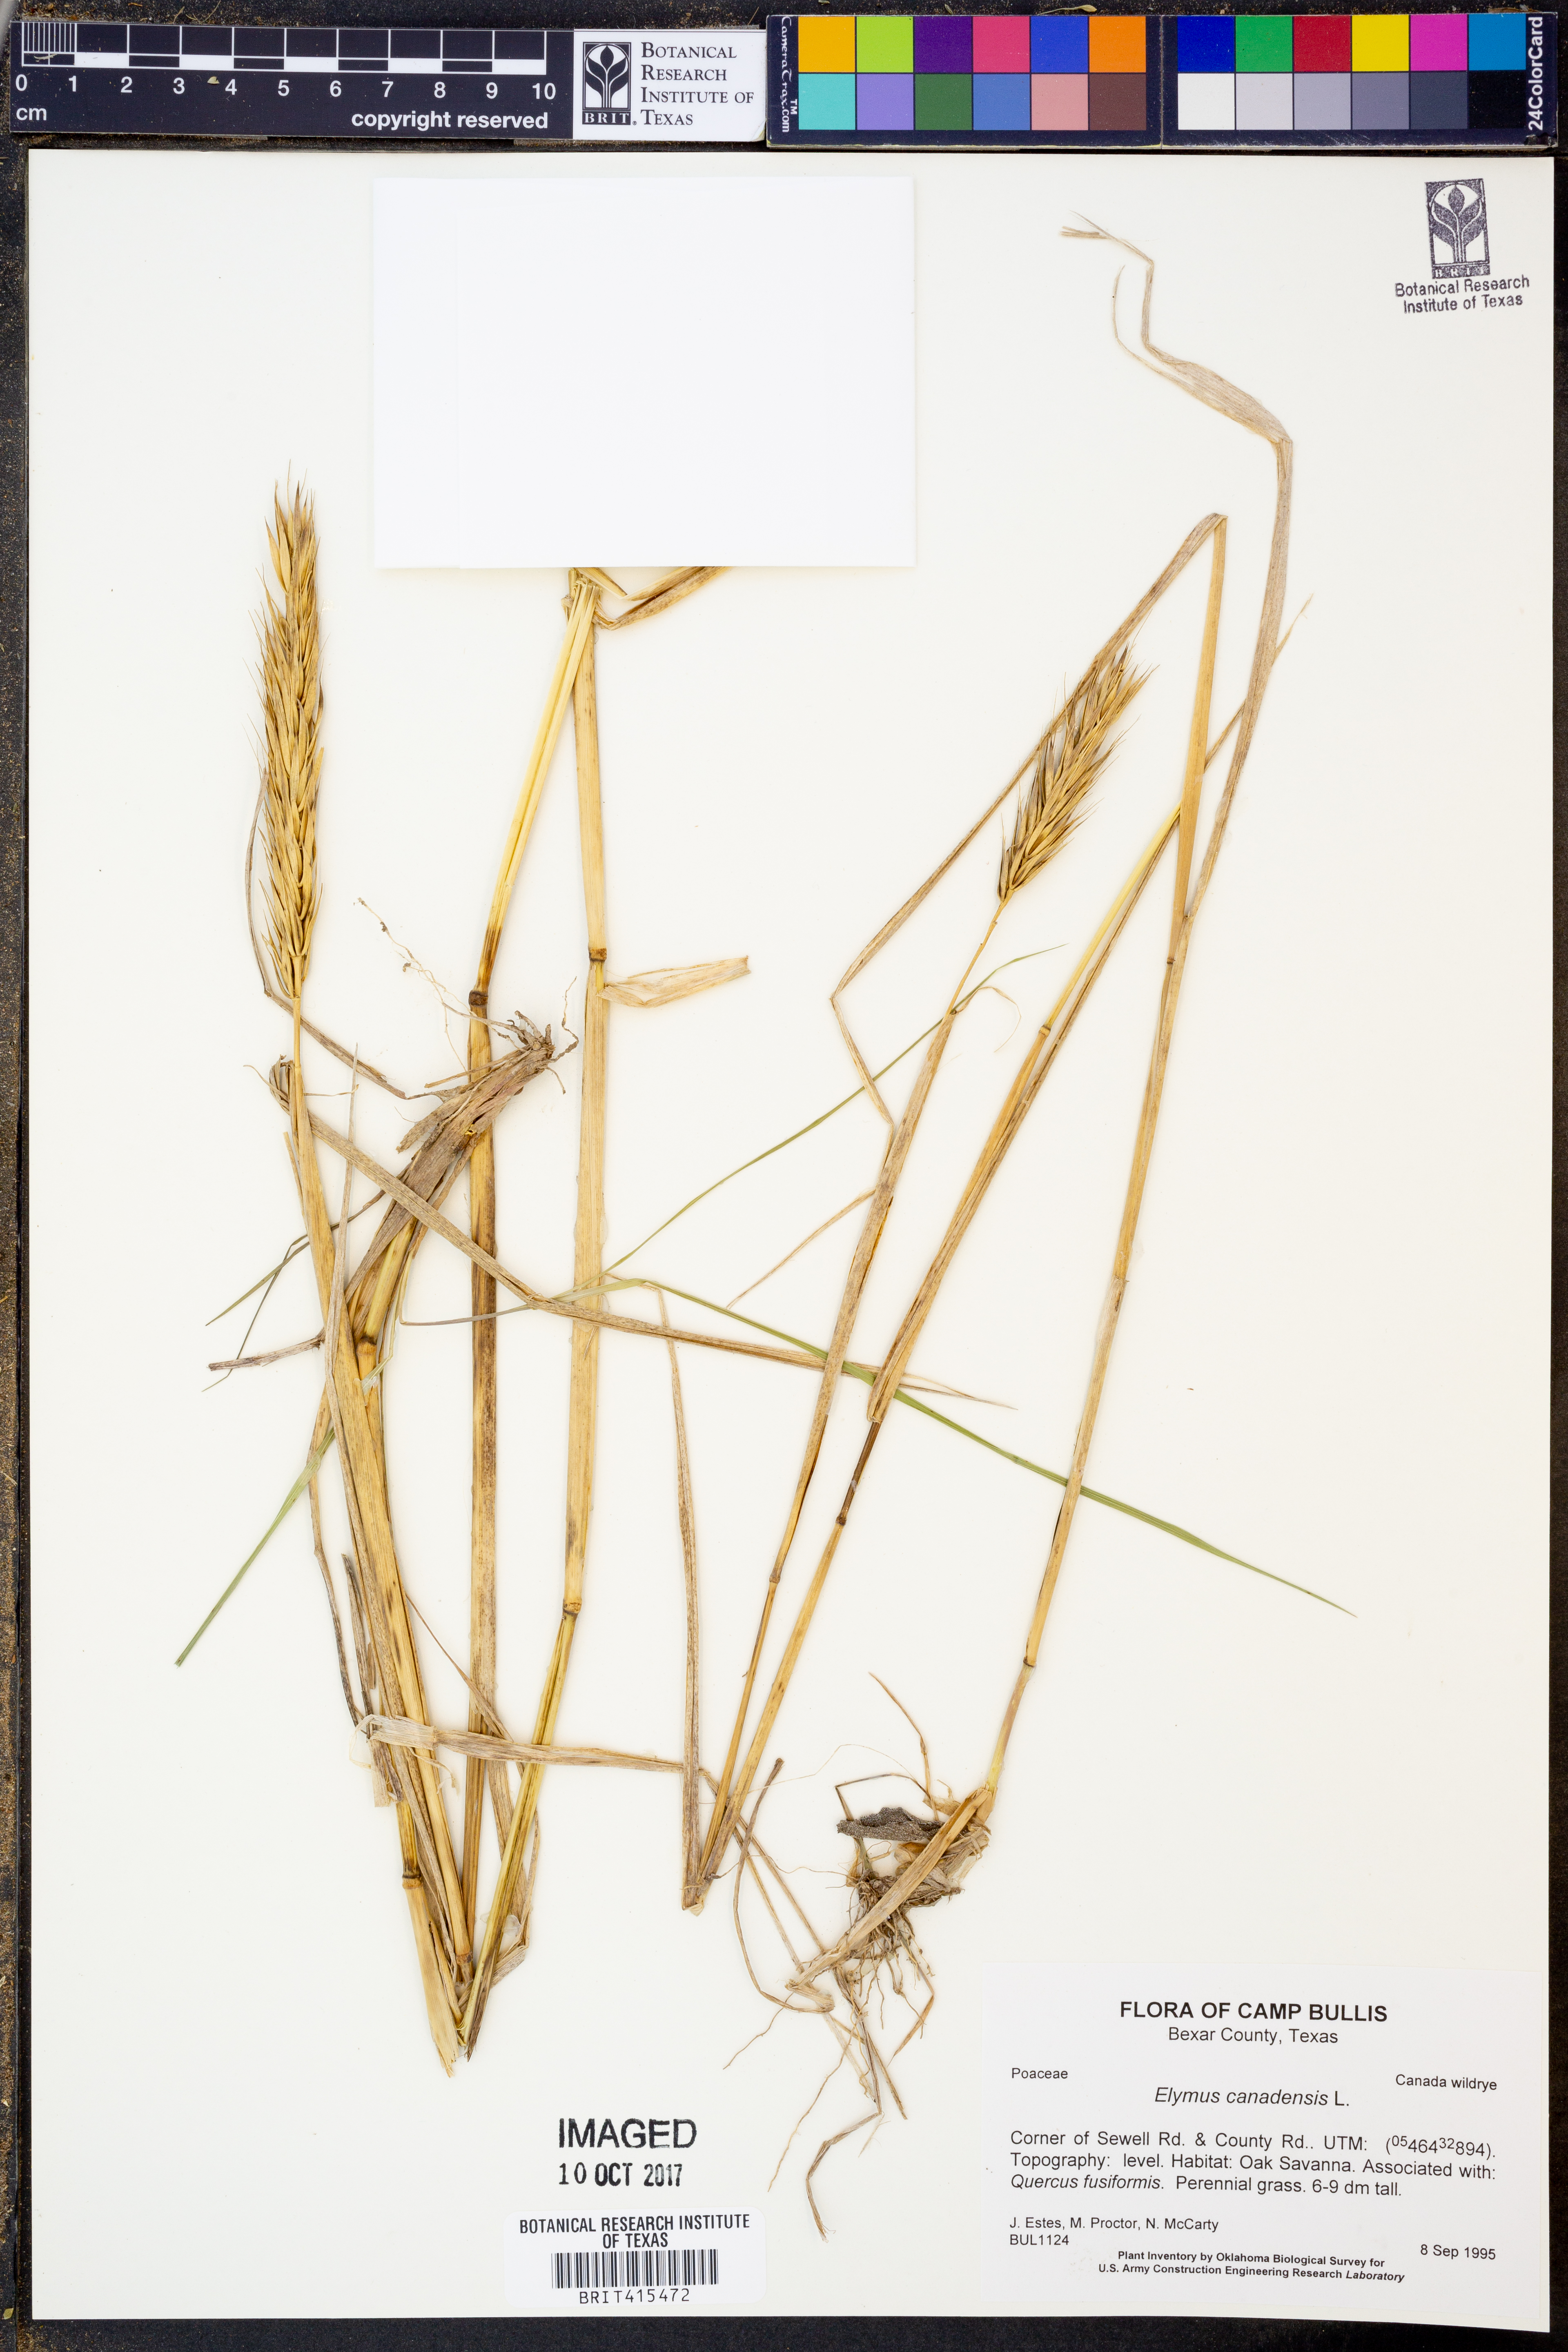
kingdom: Plantae
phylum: Tracheophyta
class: Liliopsida
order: Poales
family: Poaceae
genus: Elymus
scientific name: Elymus canadensis
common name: Canada wild rye
